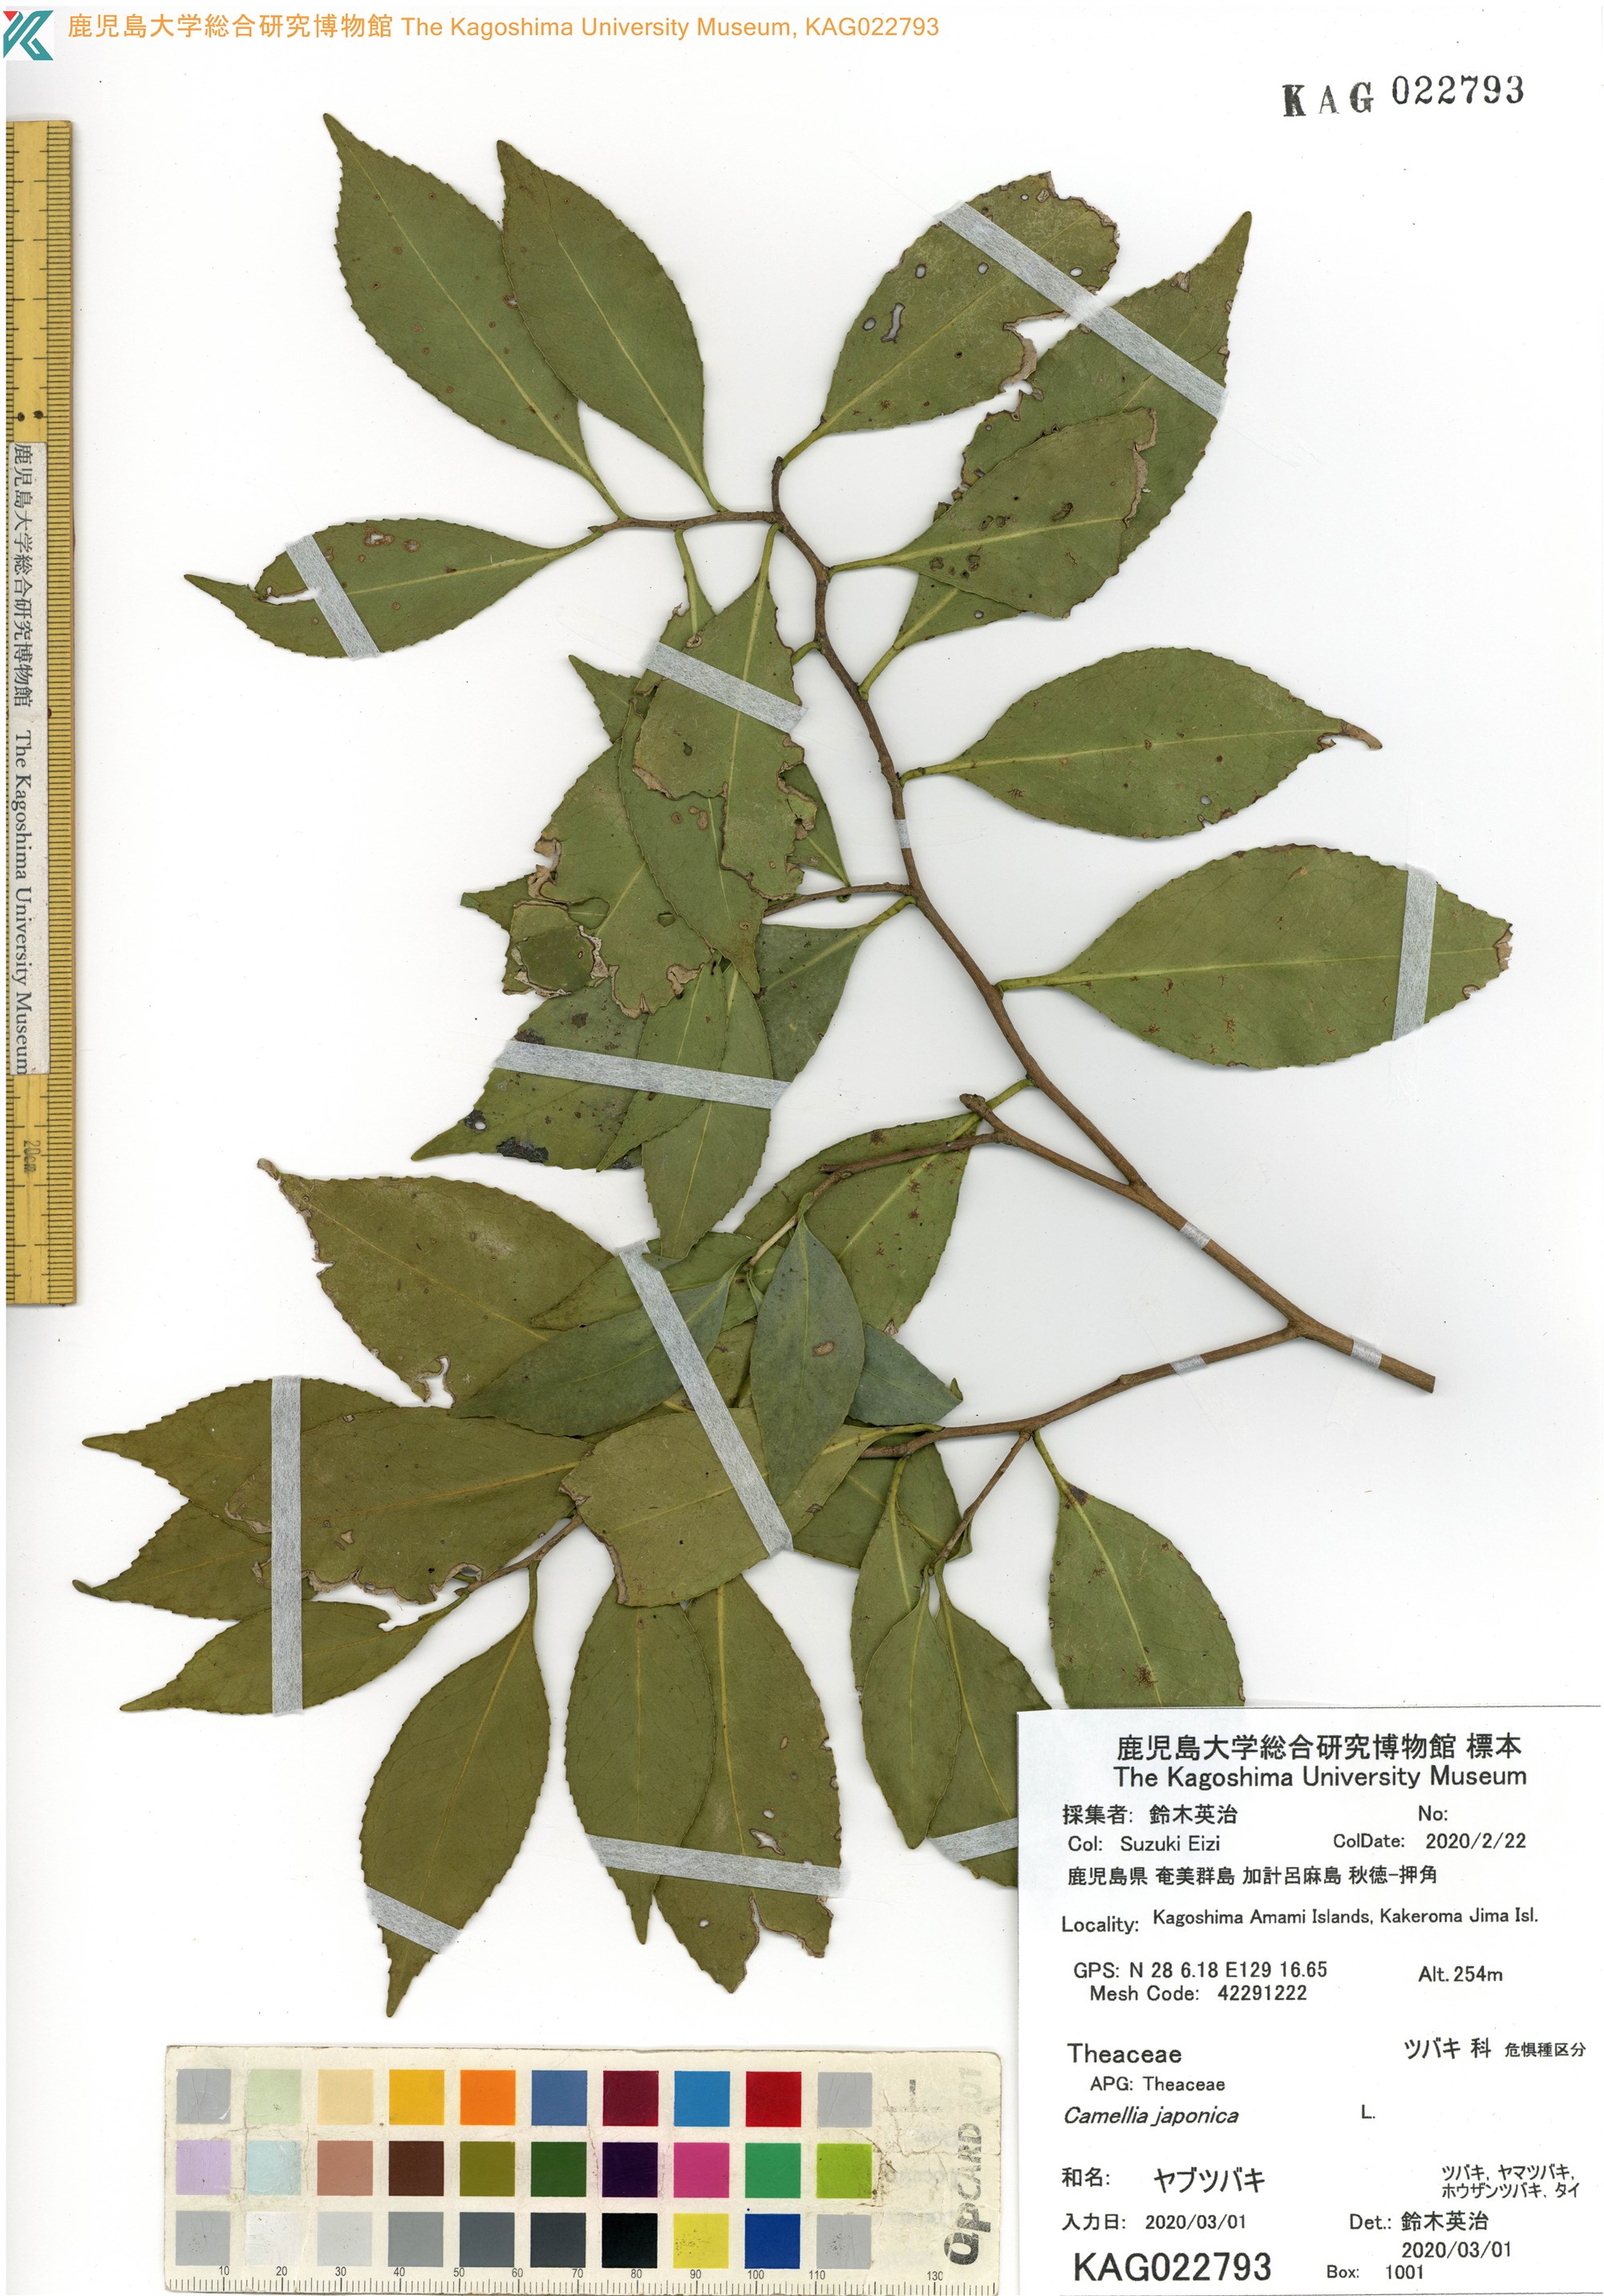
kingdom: Plantae
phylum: Tracheophyta
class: Magnoliopsida
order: Ericales
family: Theaceae
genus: Camellia
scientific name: Camellia japonica
